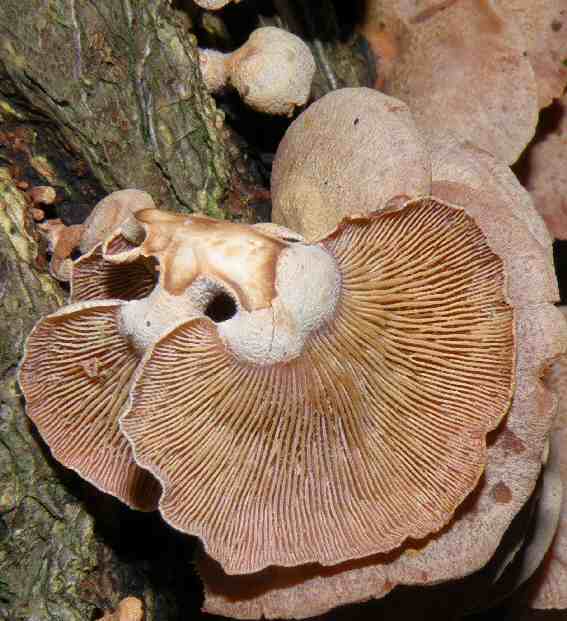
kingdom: Fungi
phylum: Basidiomycota
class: Agaricomycetes
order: Agaricales
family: Mycenaceae
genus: Panellus
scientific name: Panellus stipticus
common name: kliddet epaulethat
